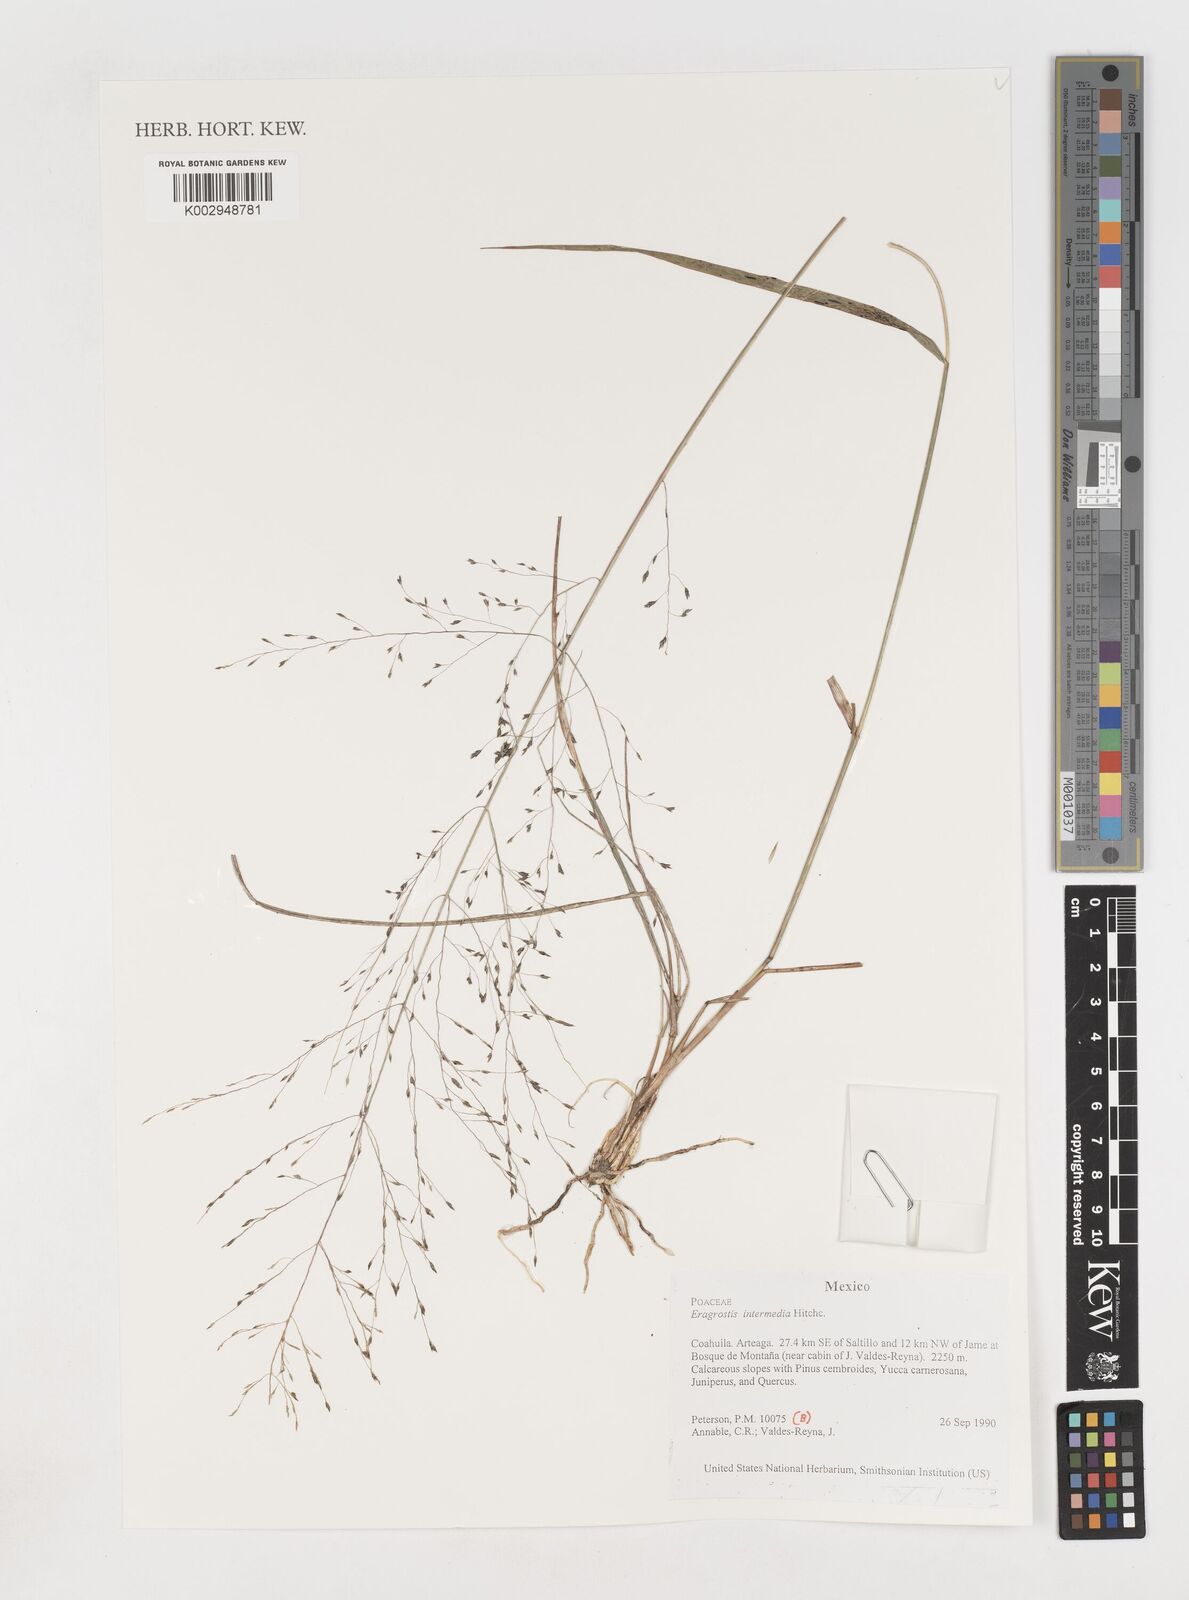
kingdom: Plantae
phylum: Tracheophyta
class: Liliopsida
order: Poales
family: Poaceae
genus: Eragrostis
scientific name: Eragrostis intermedia
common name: Plains love grass
